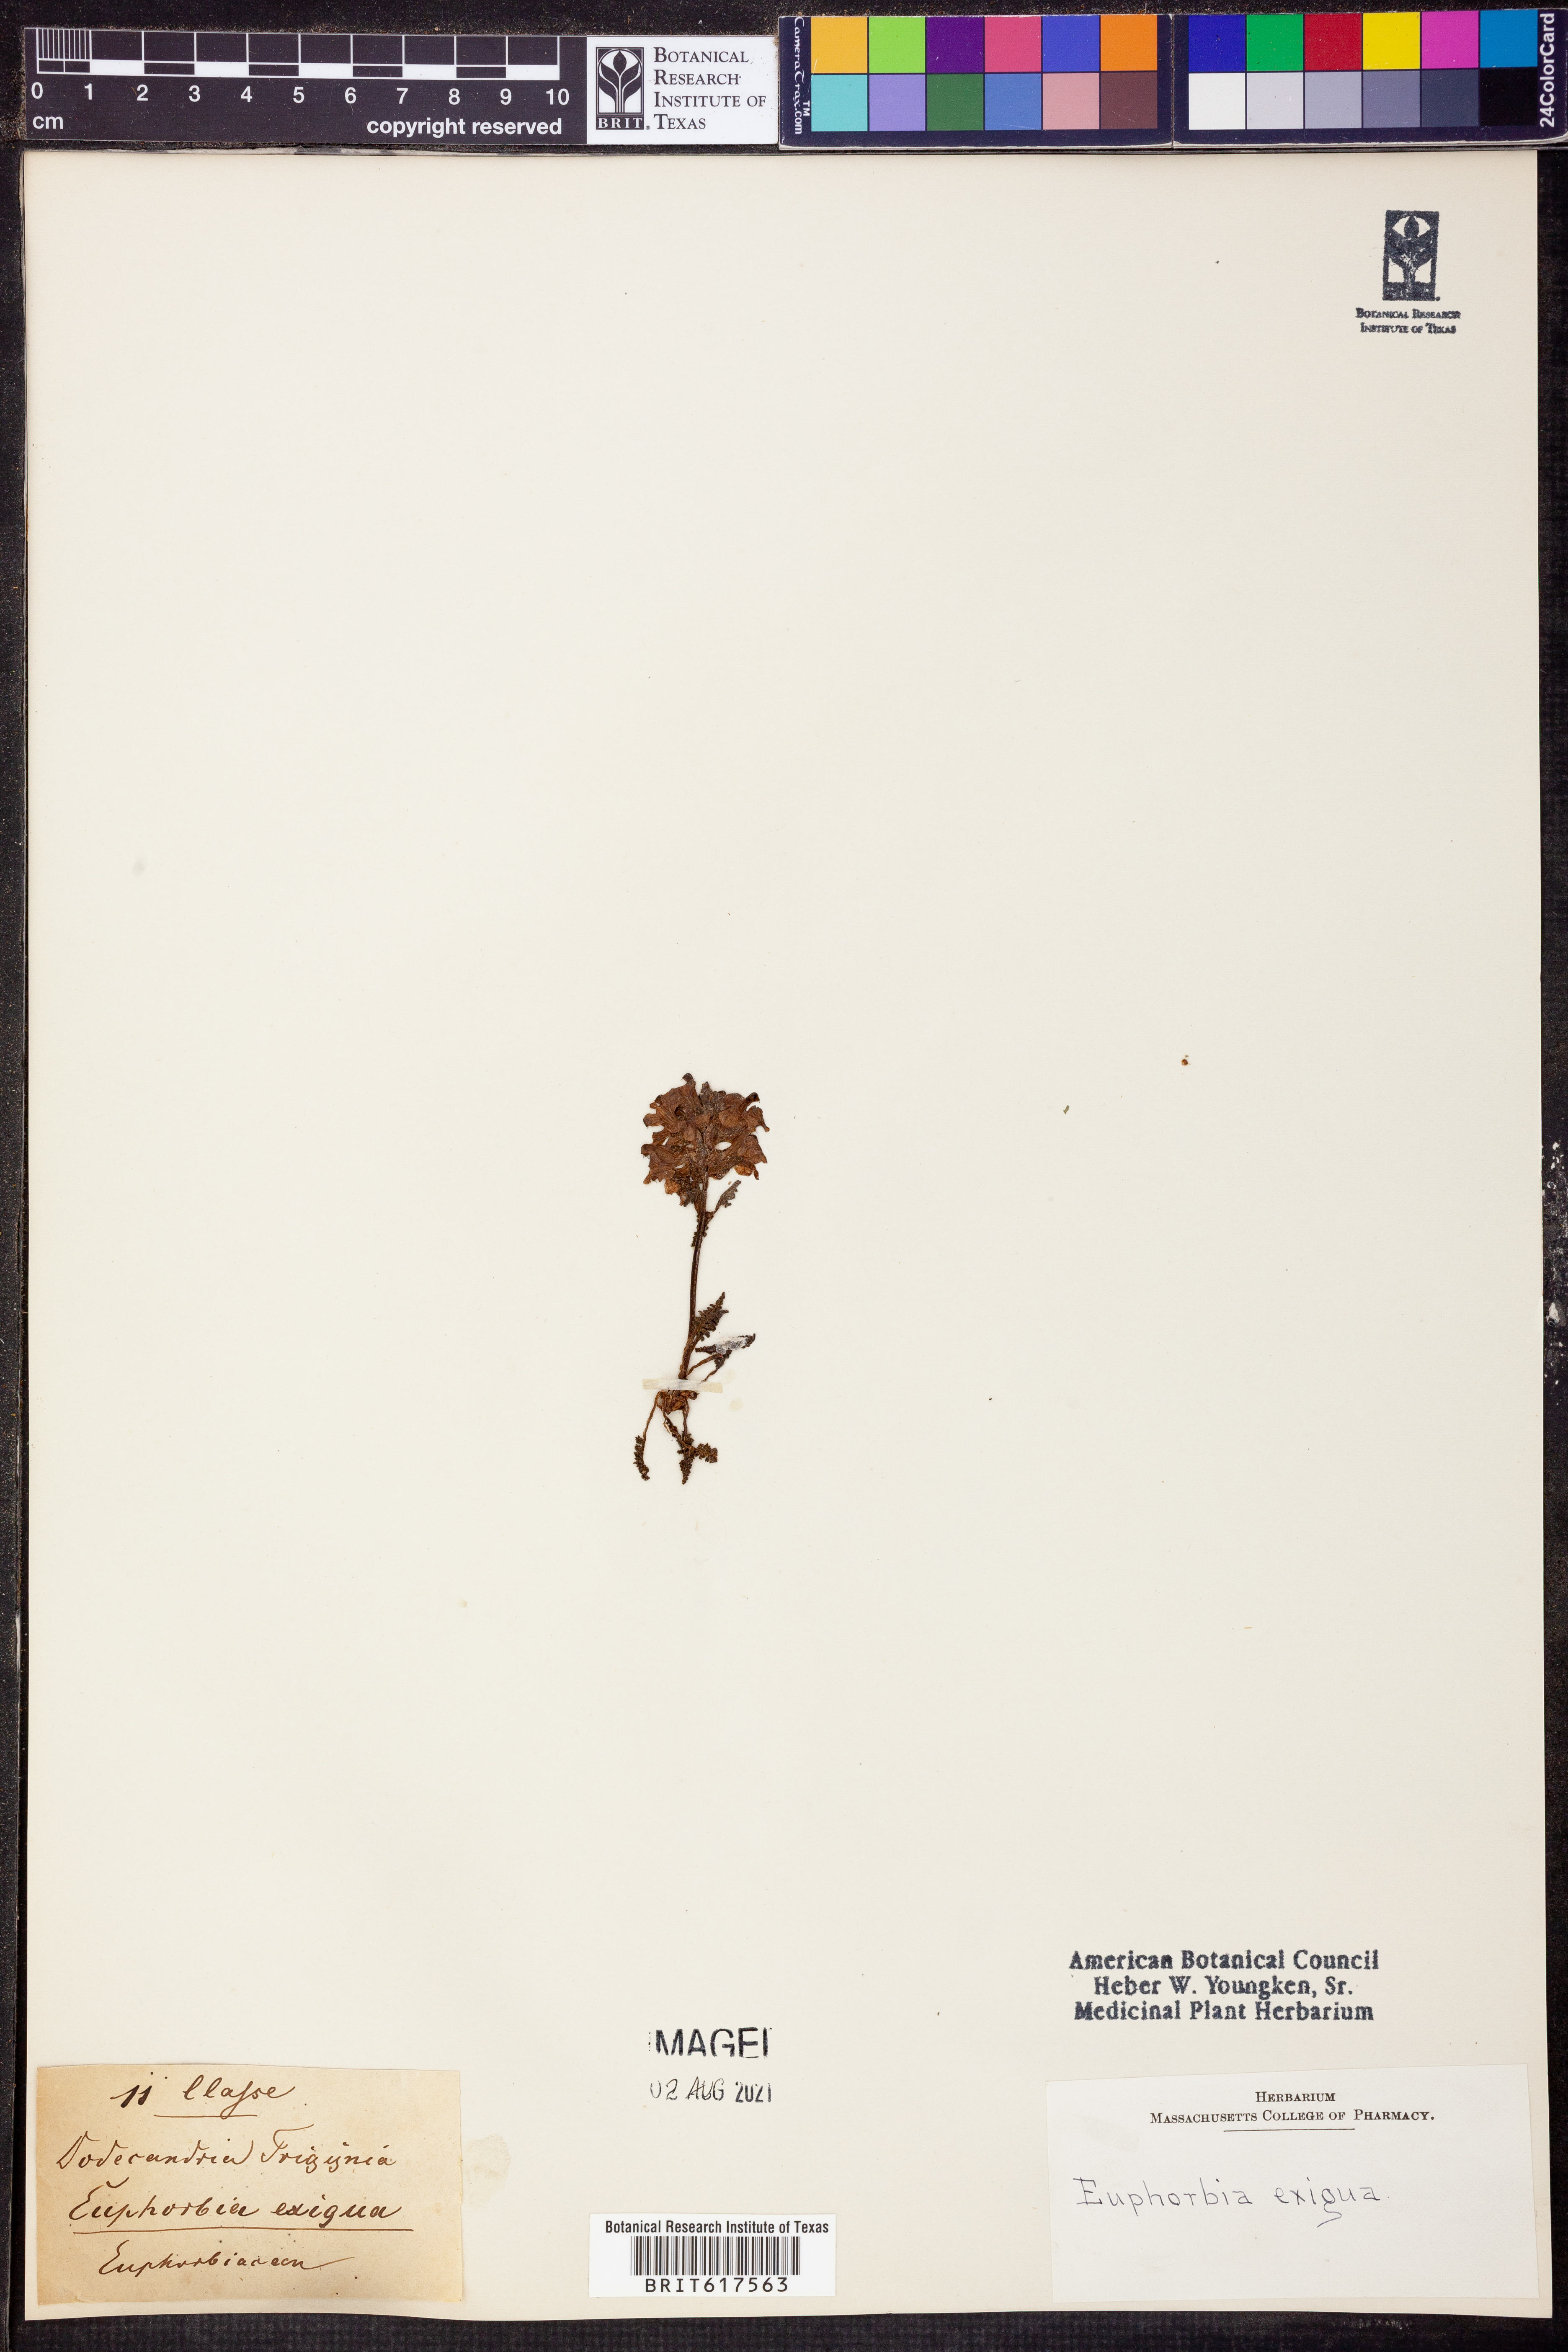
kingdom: Plantae
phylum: Tracheophyta
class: Magnoliopsida
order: Malpighiales
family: Euphorbiaceae
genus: Euphorbia
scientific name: Euphorbia exigua
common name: Dwarf spurge
